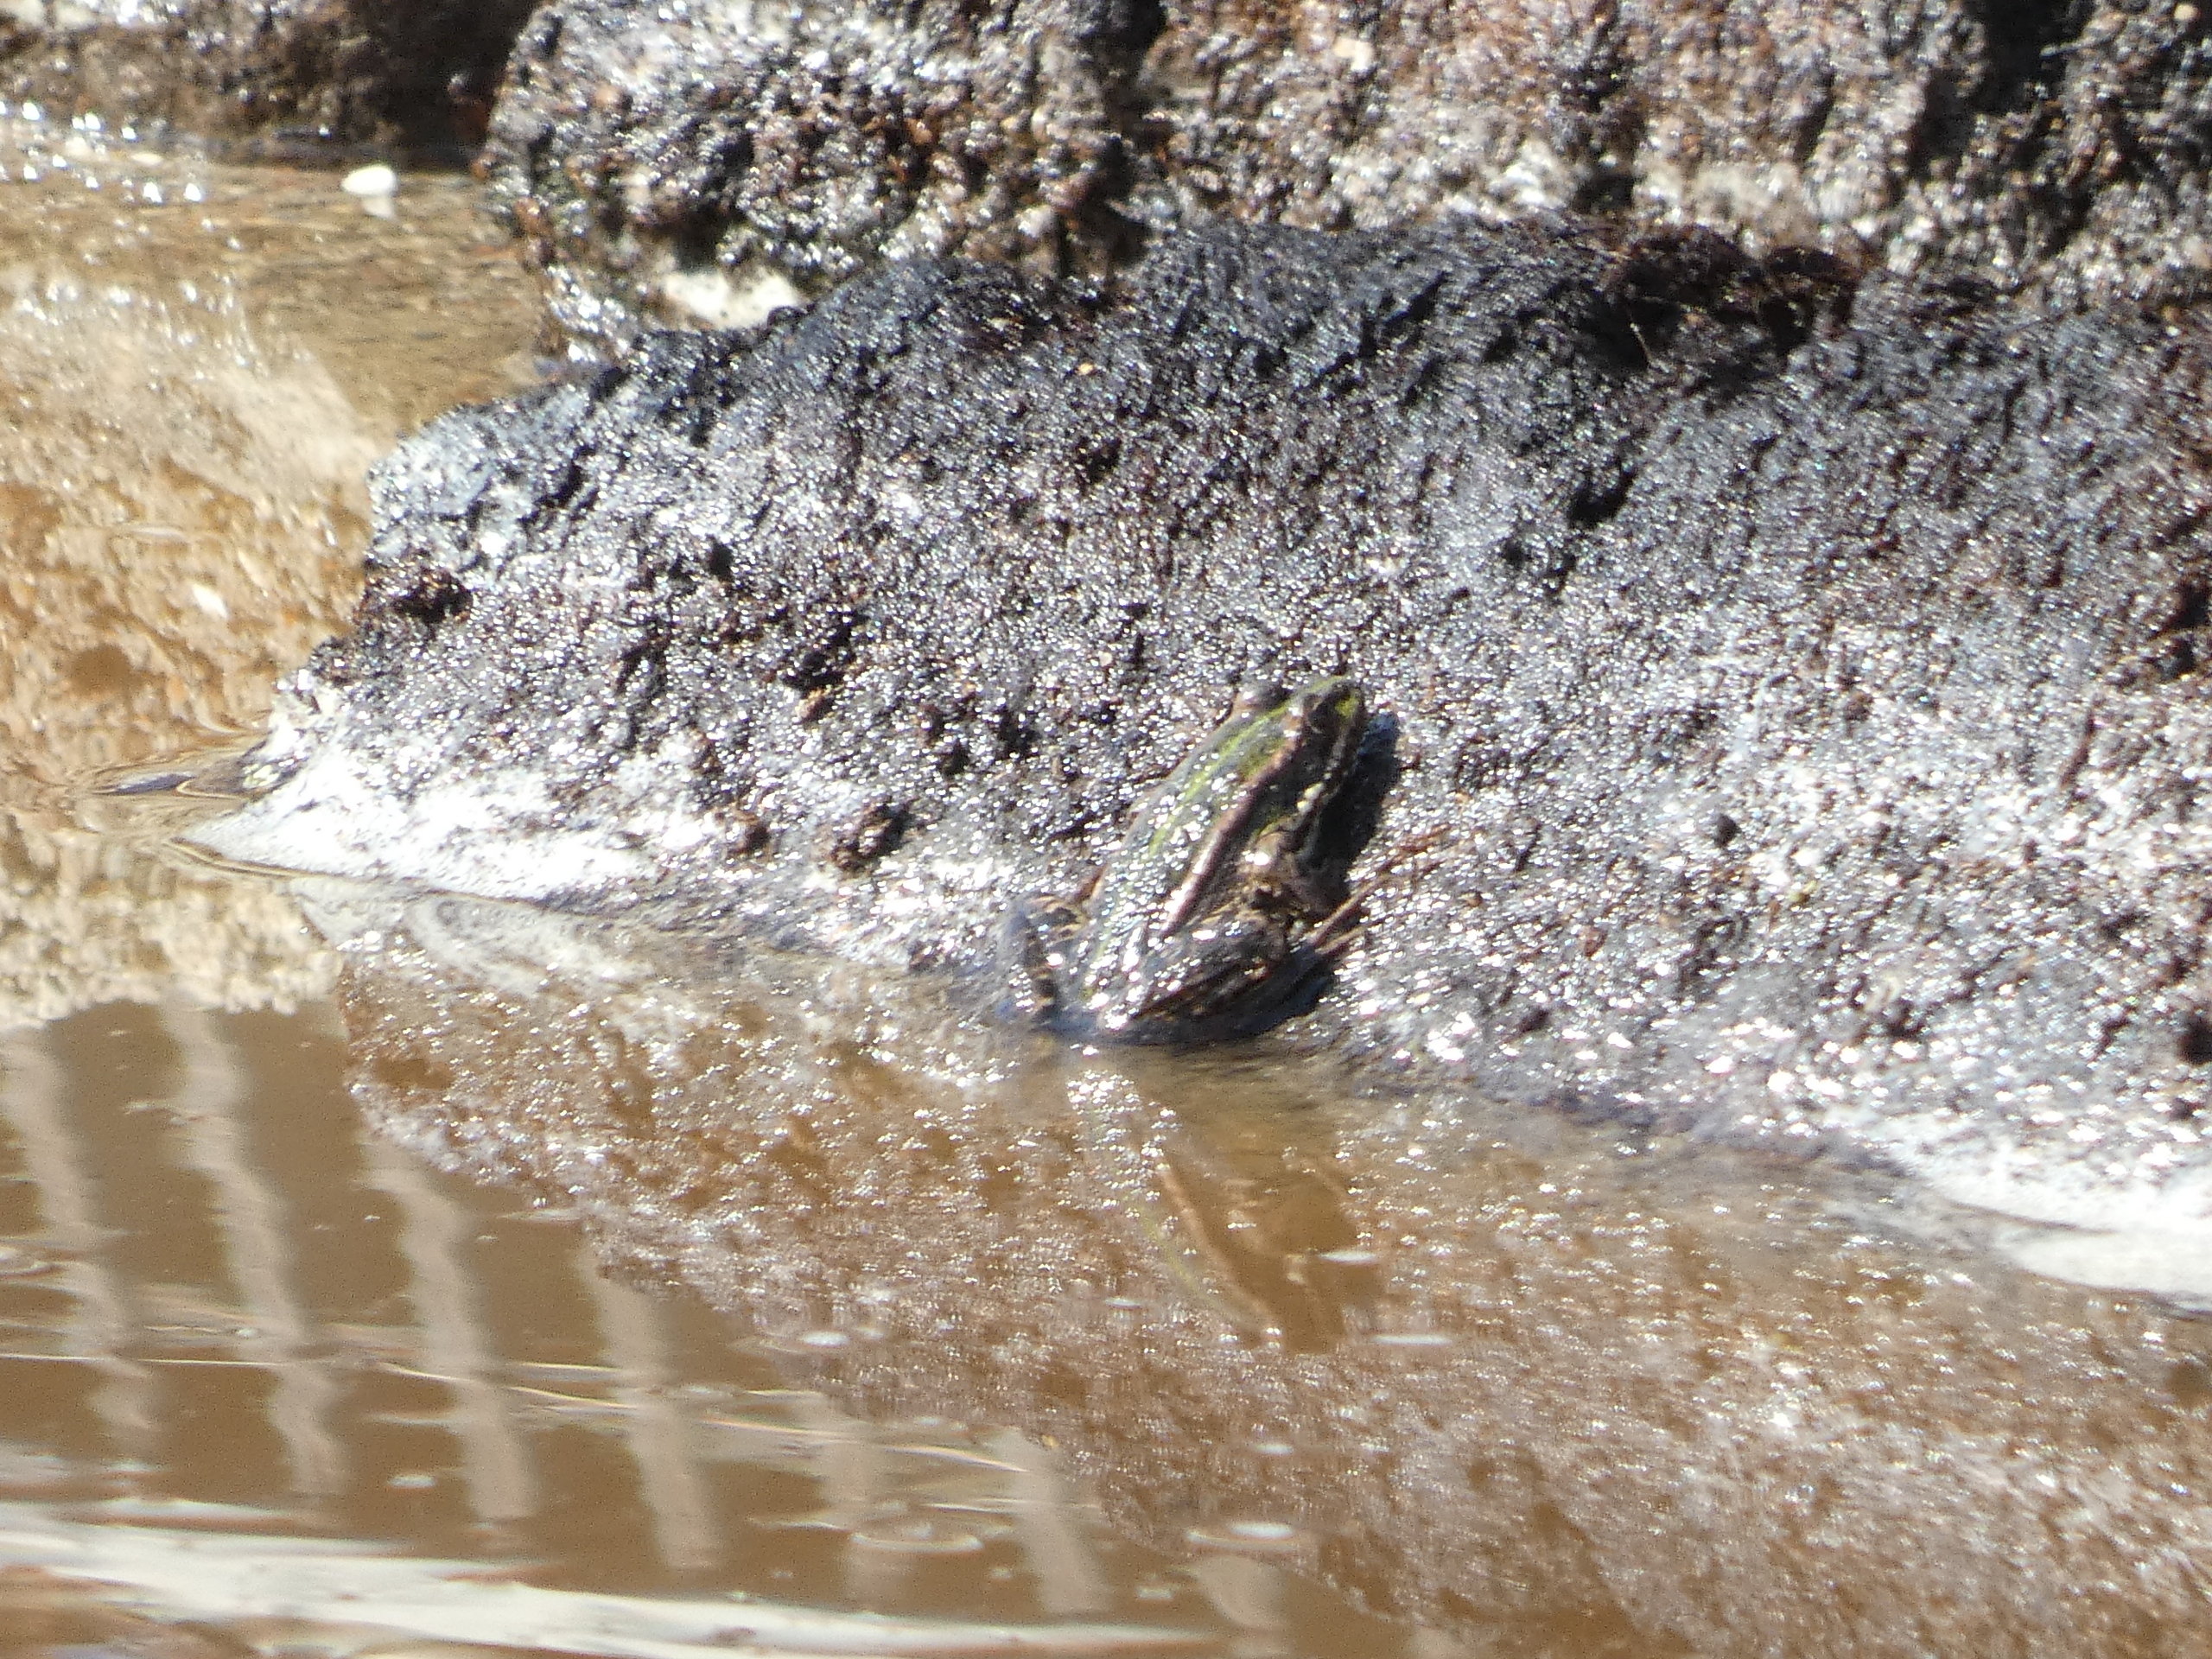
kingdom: Animalia
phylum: Chordata
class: Amphibia
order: Anura
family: Ranidae
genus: Pelophylax
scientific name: Pelophylax lessonae
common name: Grøn frø
